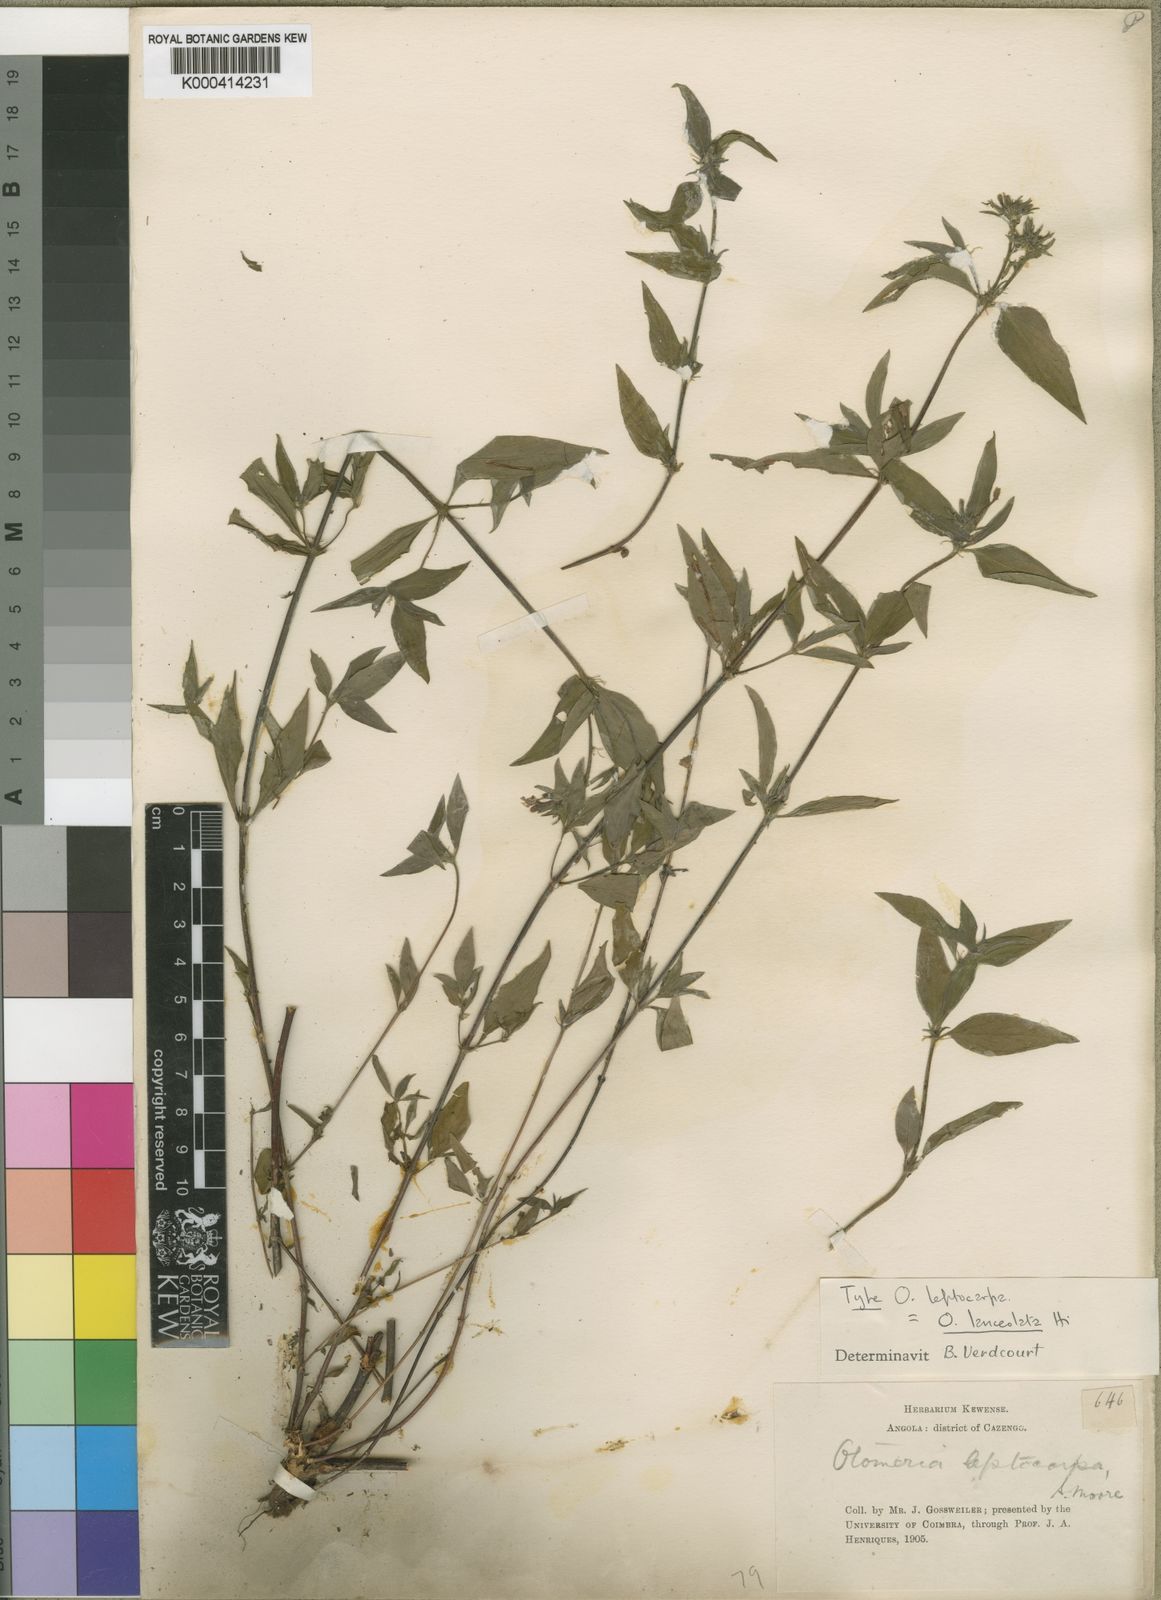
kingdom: Plantae
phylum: Tracheophyta
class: Magnoliopsida
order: Gentianales
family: Rubiaceae
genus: Otomeria
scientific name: Otomeria lanceolata
